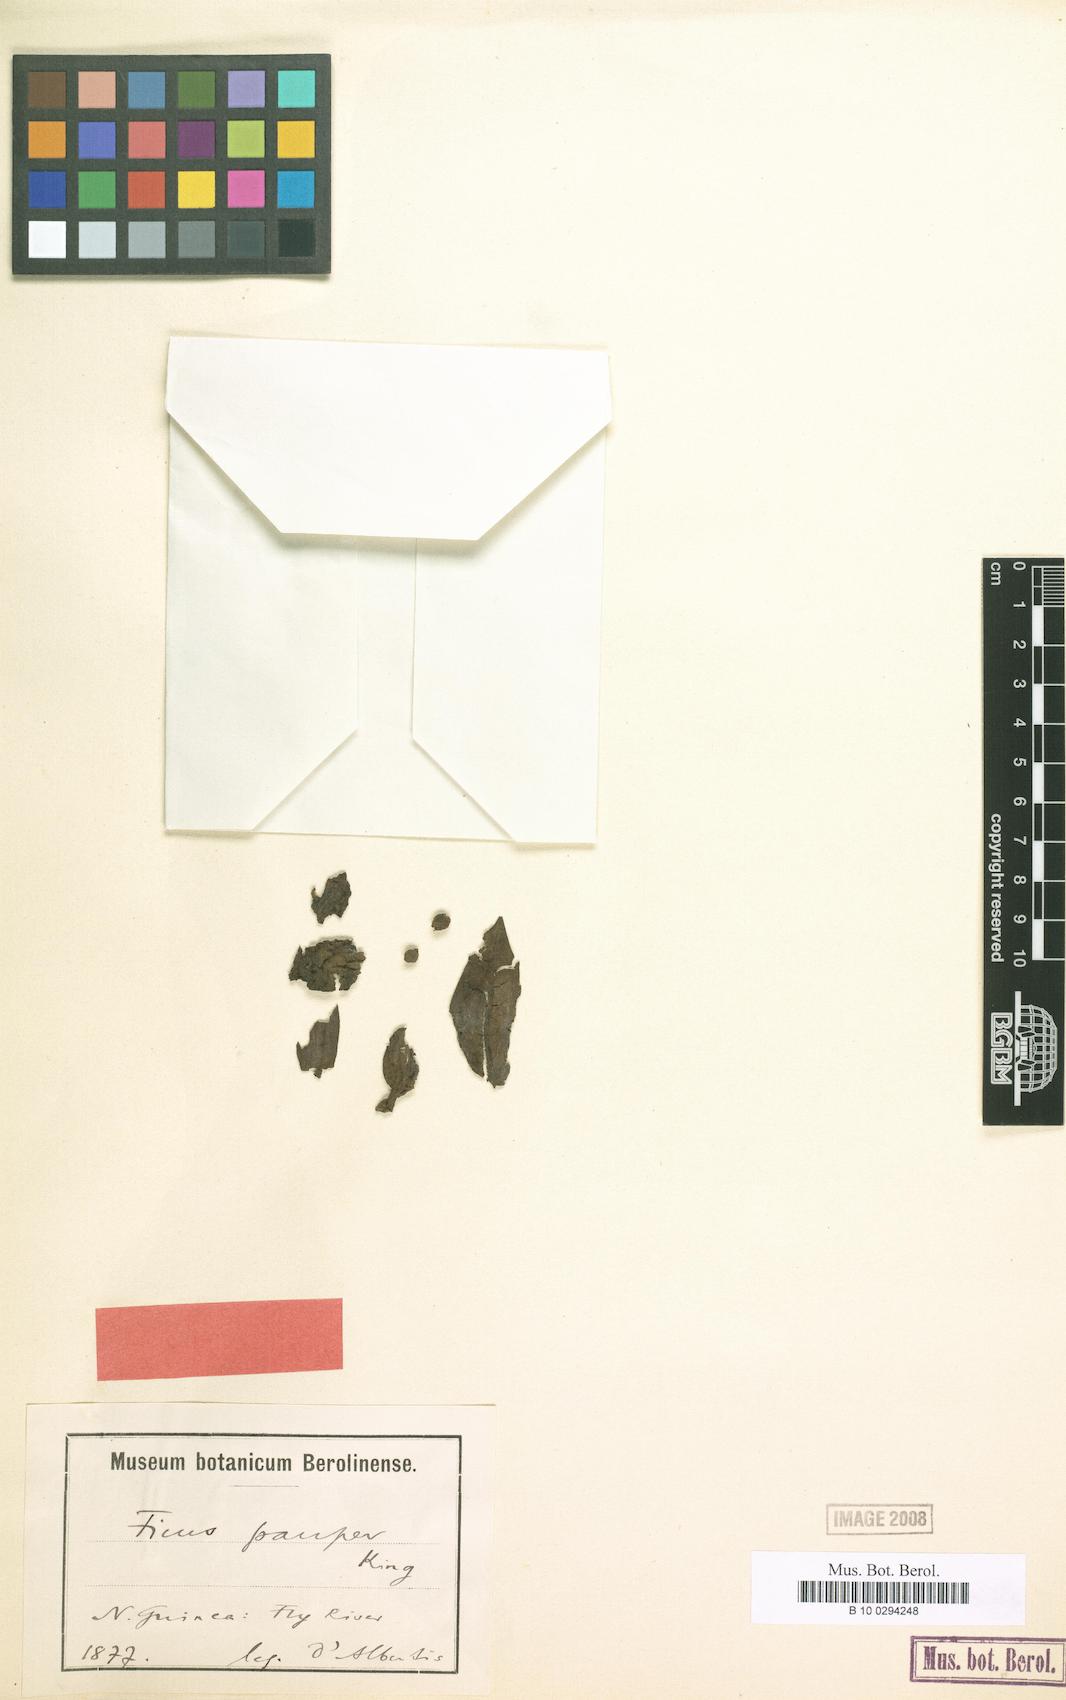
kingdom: Plantae
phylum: Tracheophyta
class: Magnoliopsida
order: Rosales
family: Moraceae
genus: Ficus
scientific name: Ficus adenosperma
